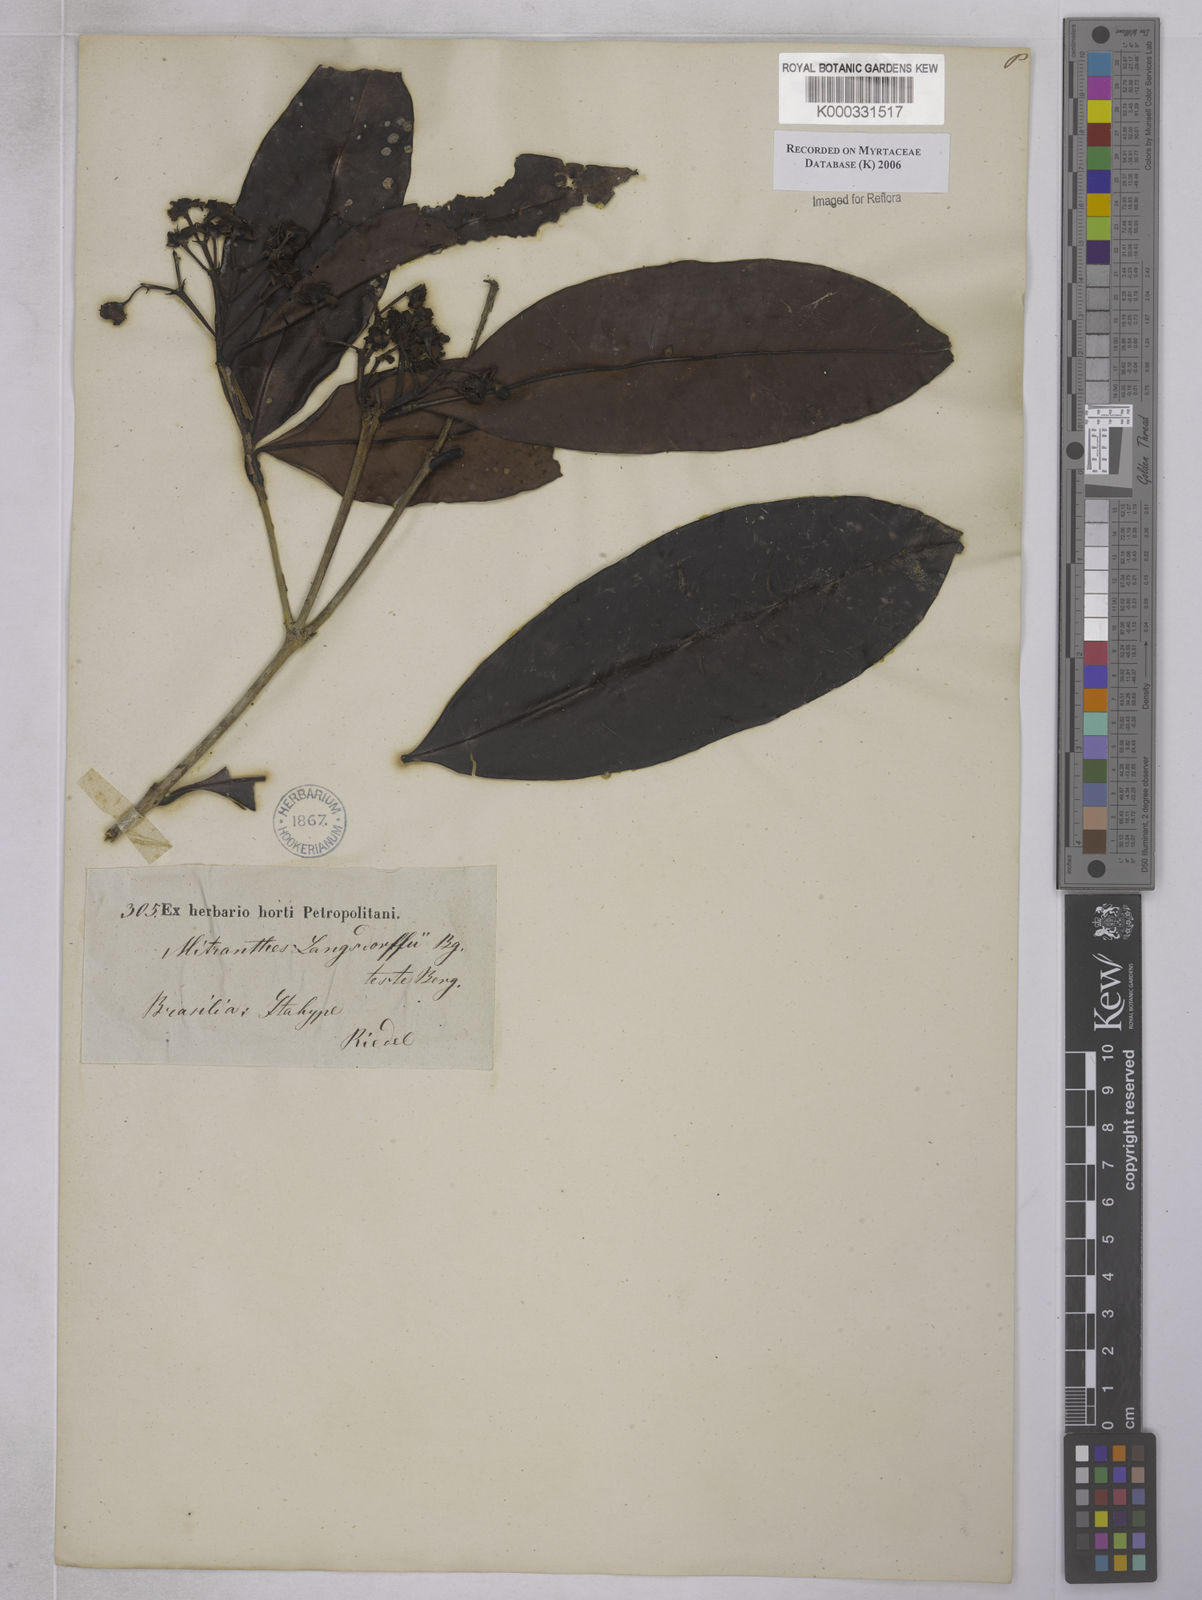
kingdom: Plantae
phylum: Tracheophyta
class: Magnoliopsida
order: Myrtales
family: Myrtaceae
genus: Neomitranthes
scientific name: Neomitranthes langsdorffii
